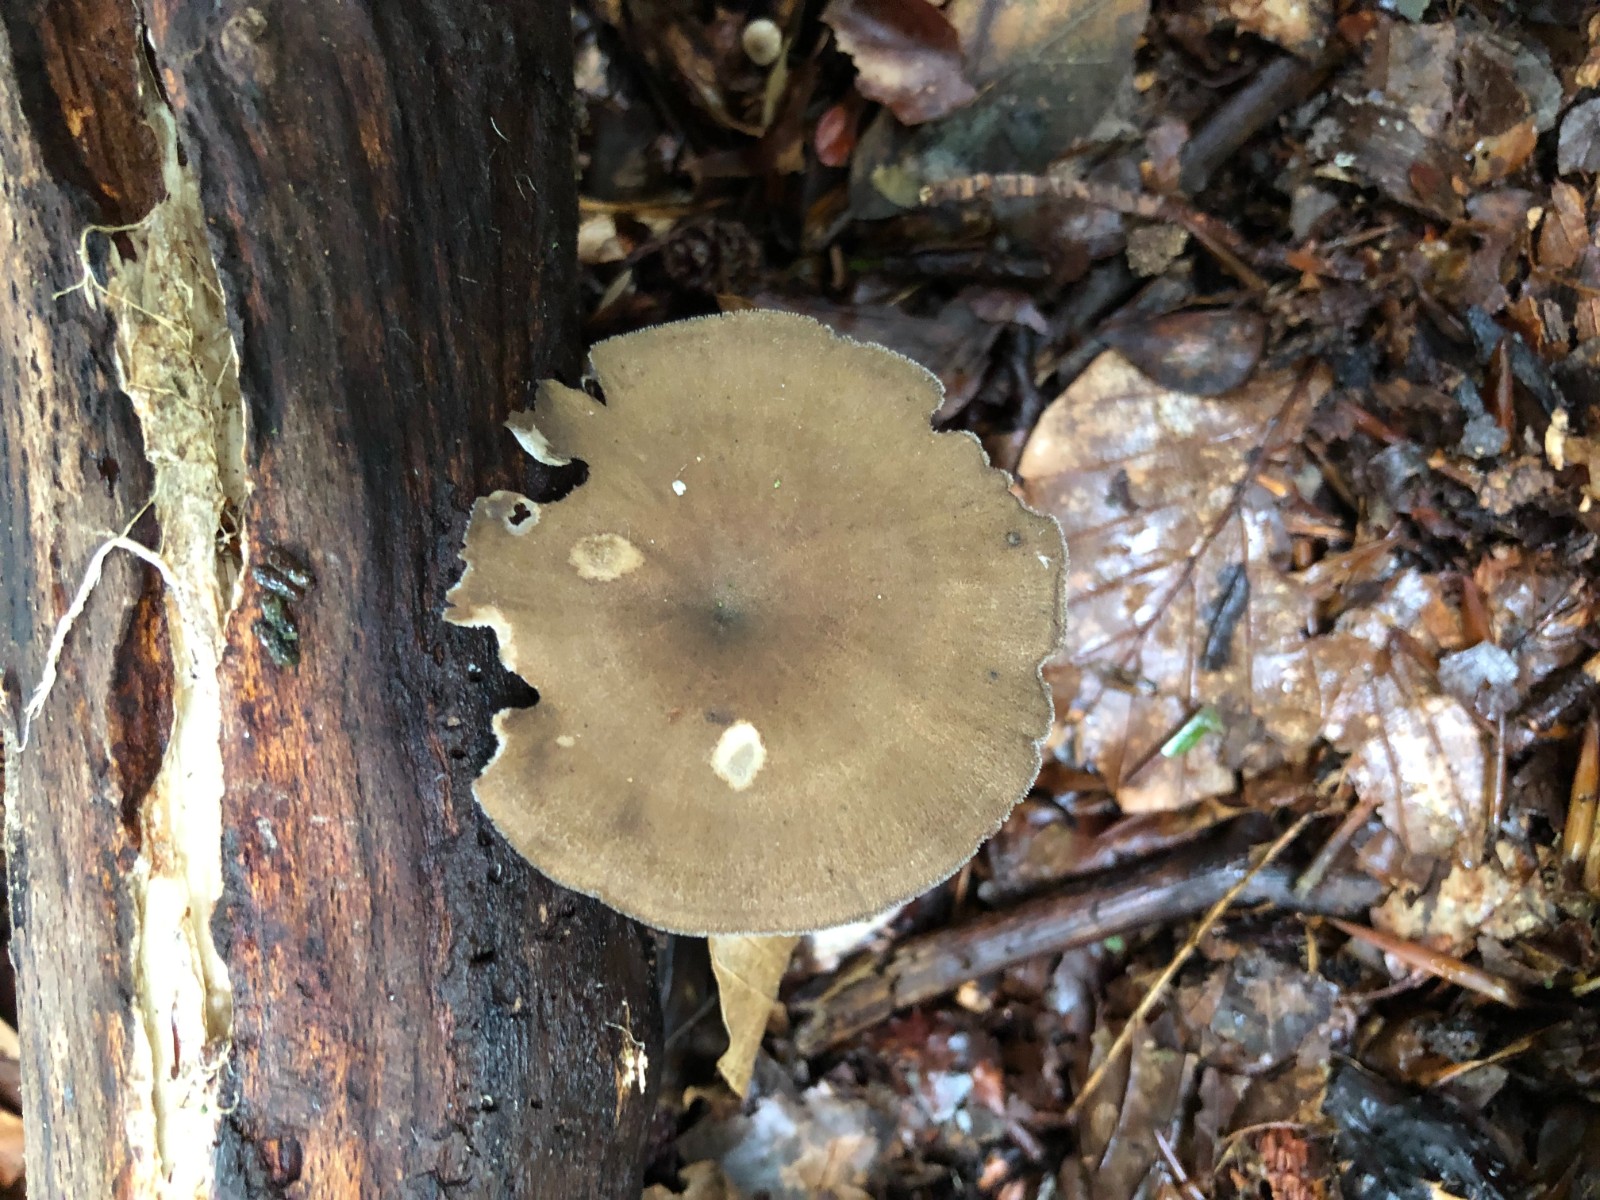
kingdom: Fungi
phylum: Basidiomycota
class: Agaricomycetes
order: Polyporales
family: Polyporaceae
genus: Lentinus
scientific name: Lentinus brumalis
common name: vinter-stilkporesvamp
